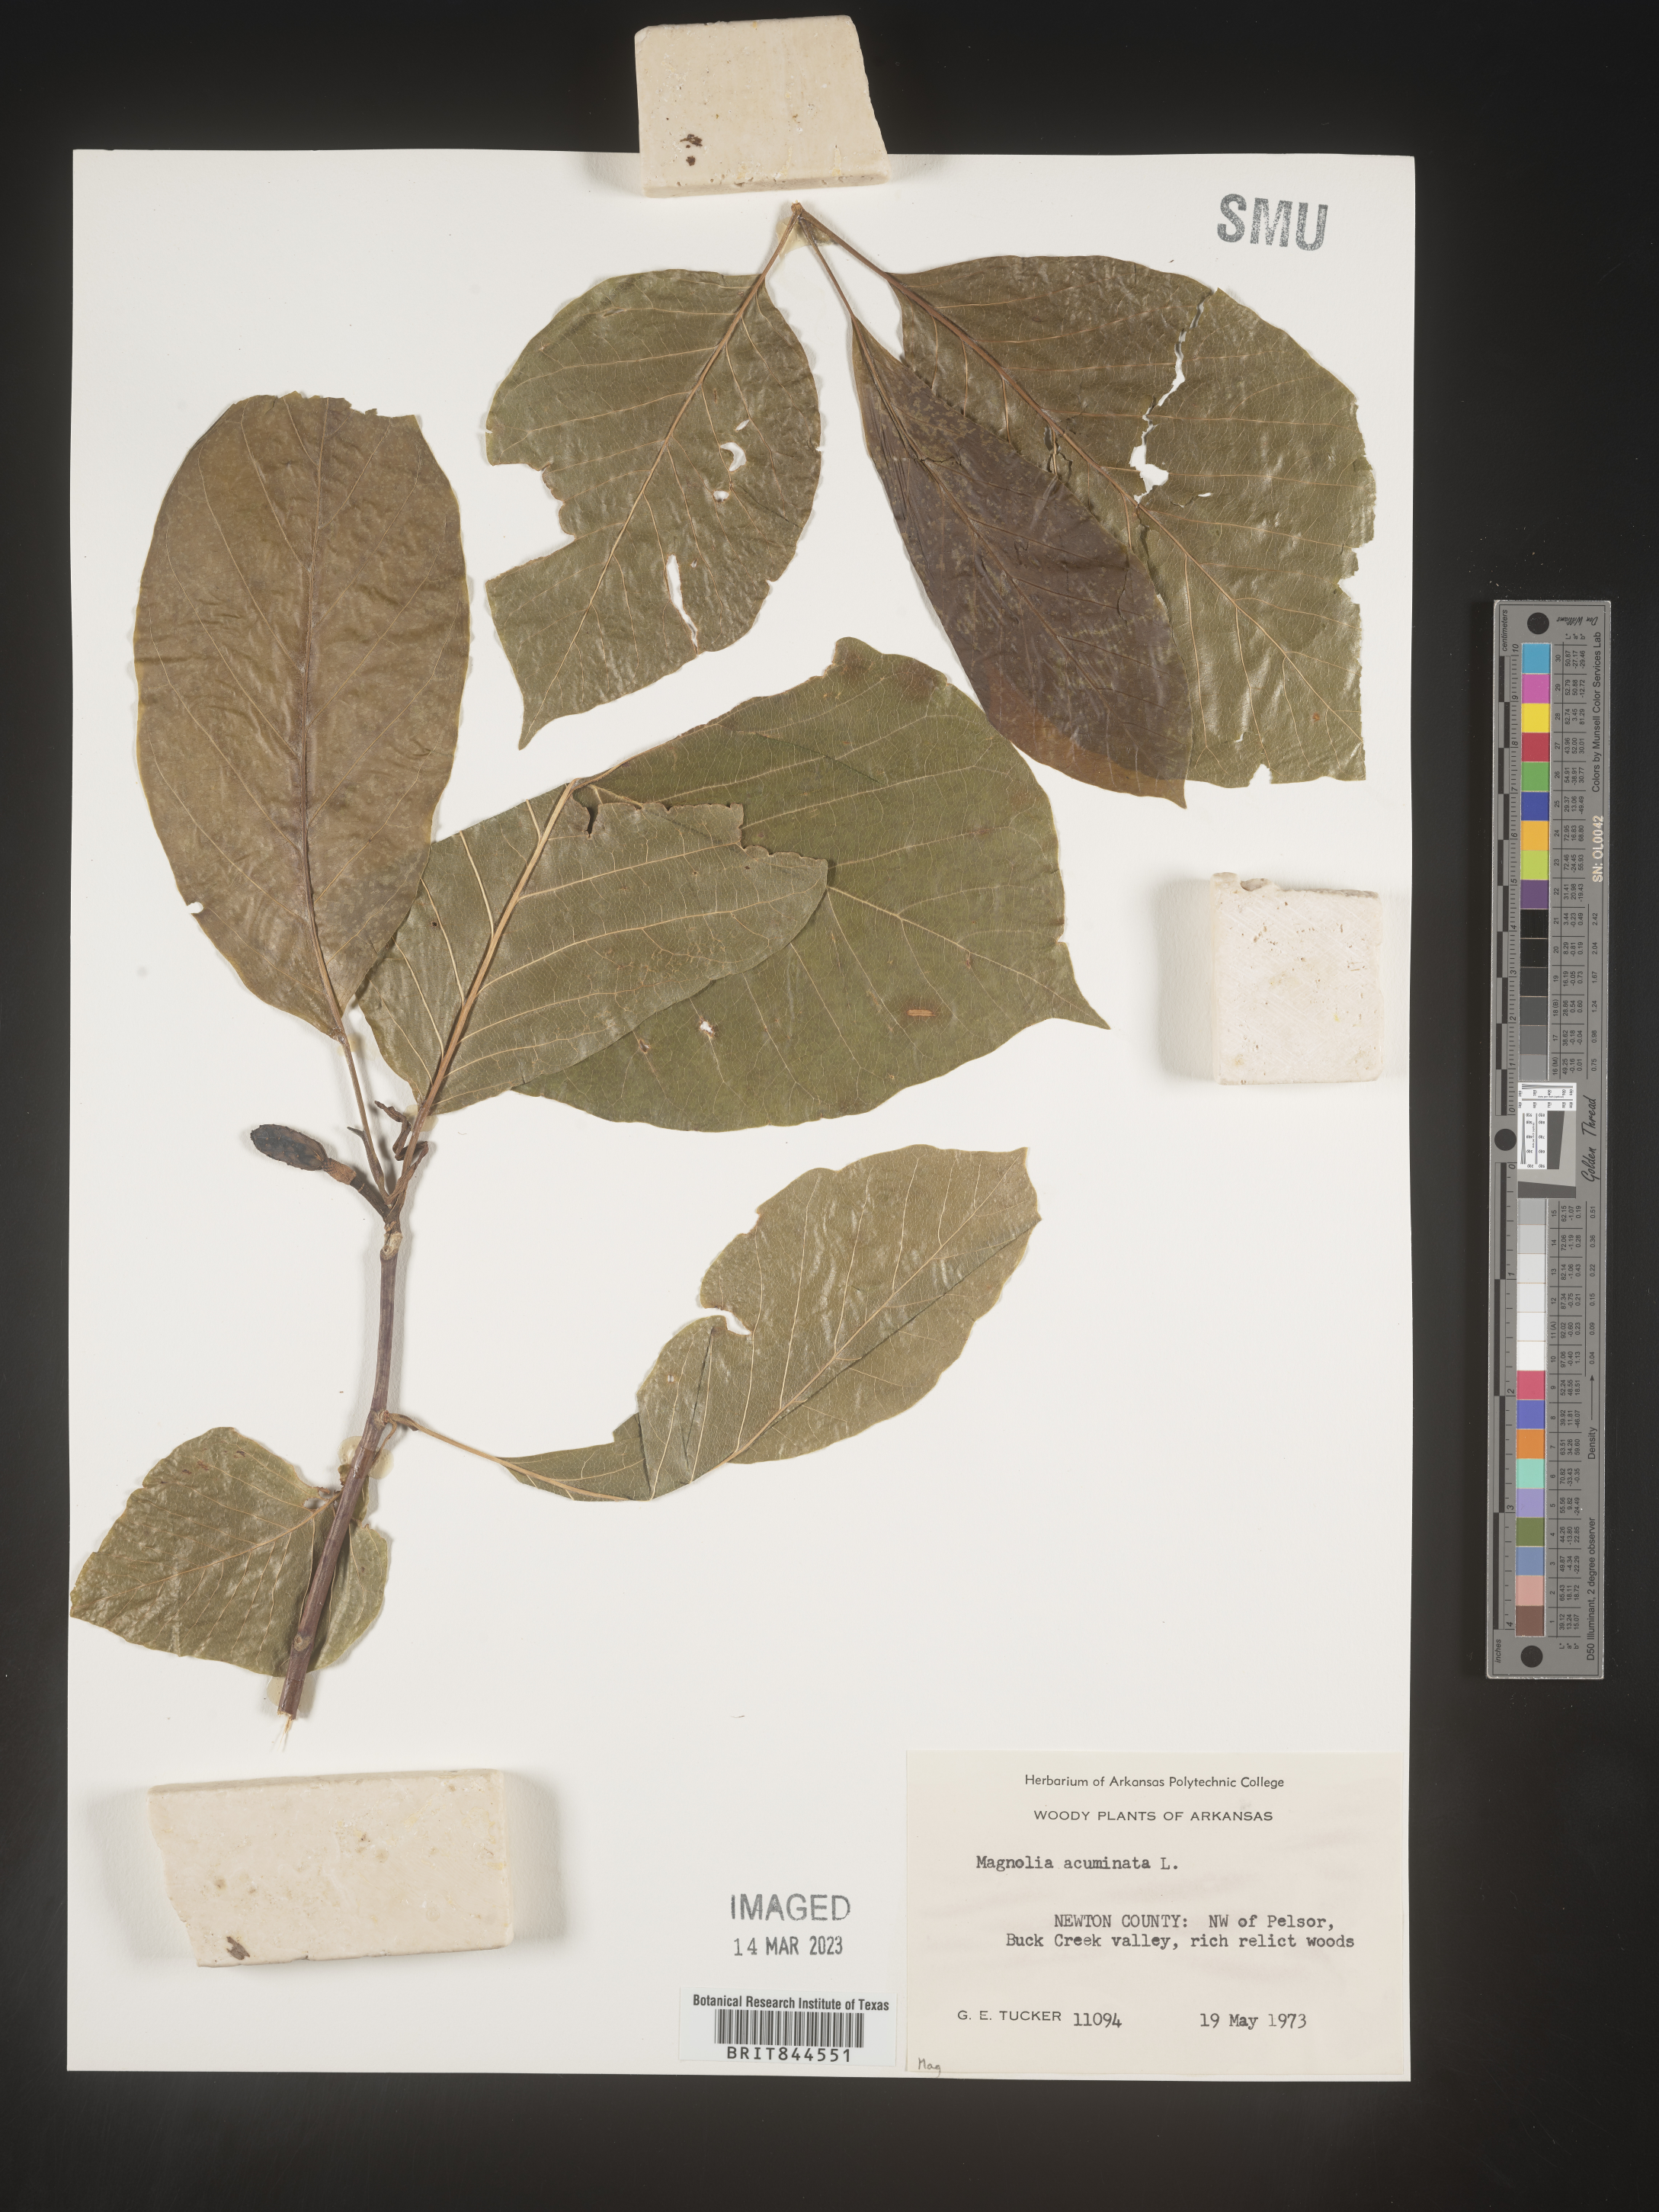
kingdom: Plantae
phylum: Tracheophyta
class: Magnoliopsida
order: Magnoliales
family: Magnoliaceae
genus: Magnolia
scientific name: Magnolia acuminata
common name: Cucumber magnolia
